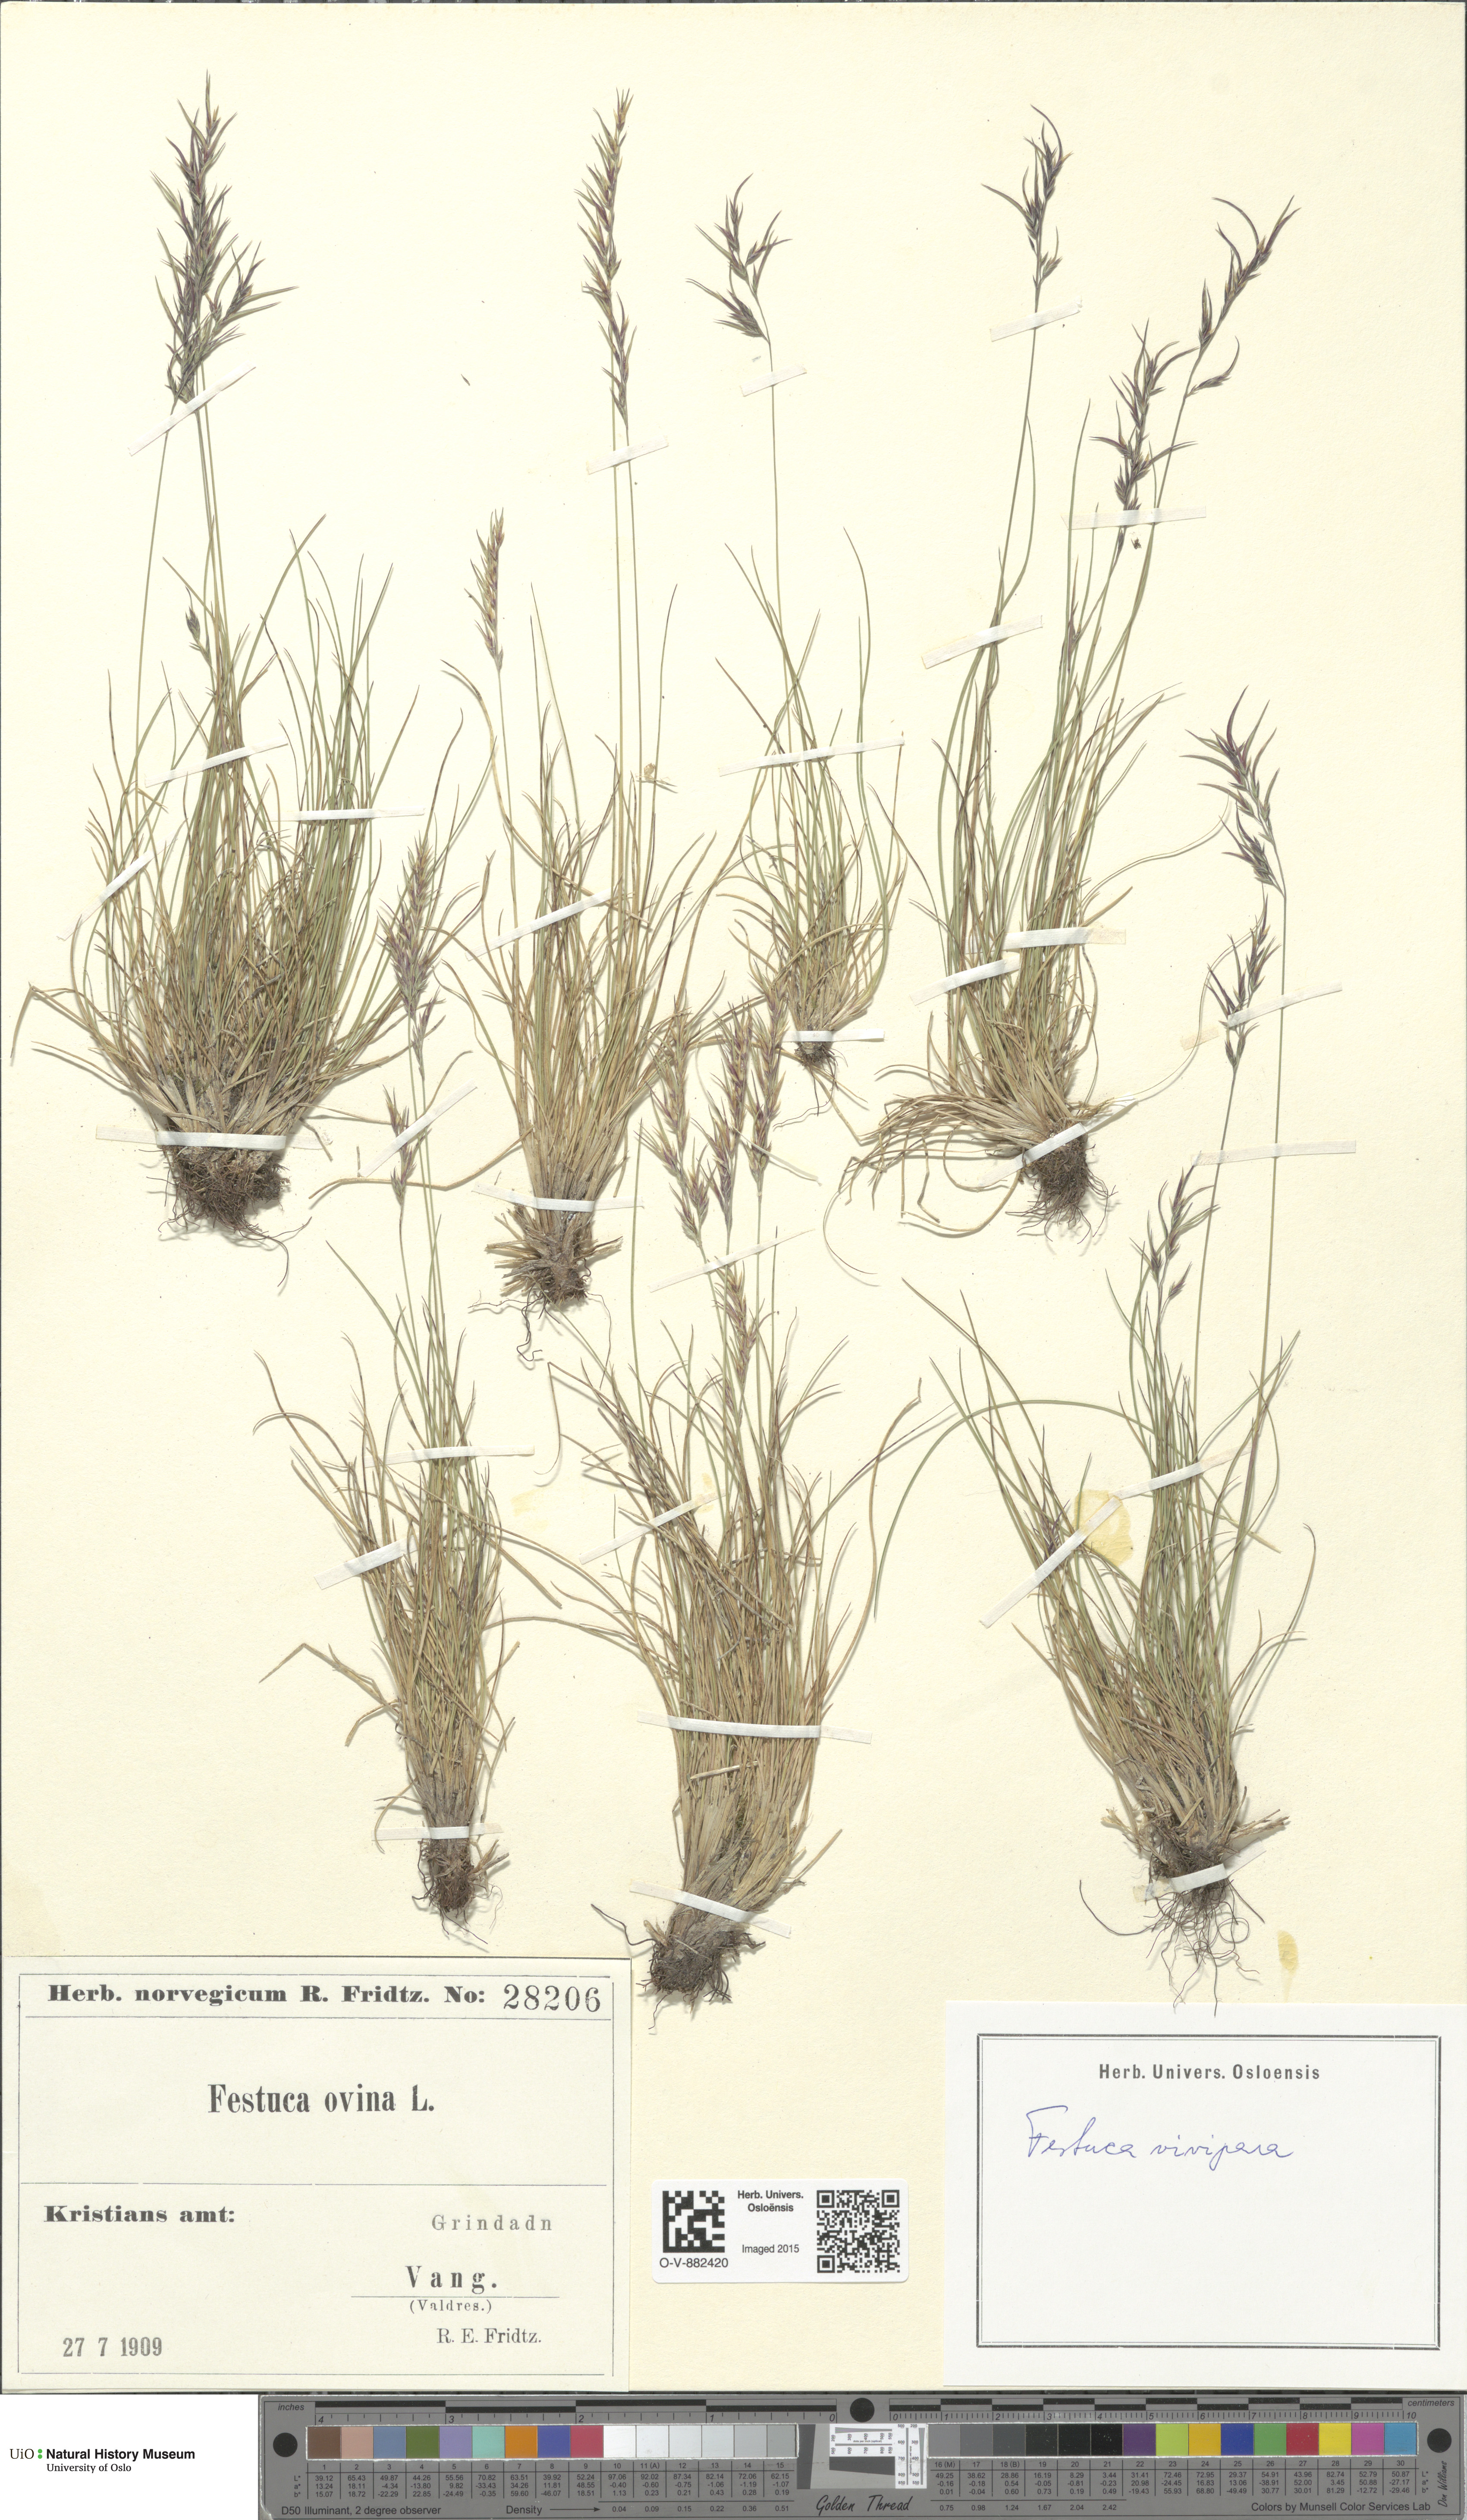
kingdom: Plantae
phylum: Tracheophyta
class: Liliopsida
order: Poales
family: Poaceae
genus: Festuca
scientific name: Festuca vivipara
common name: Viviparous sheep's-fescue
